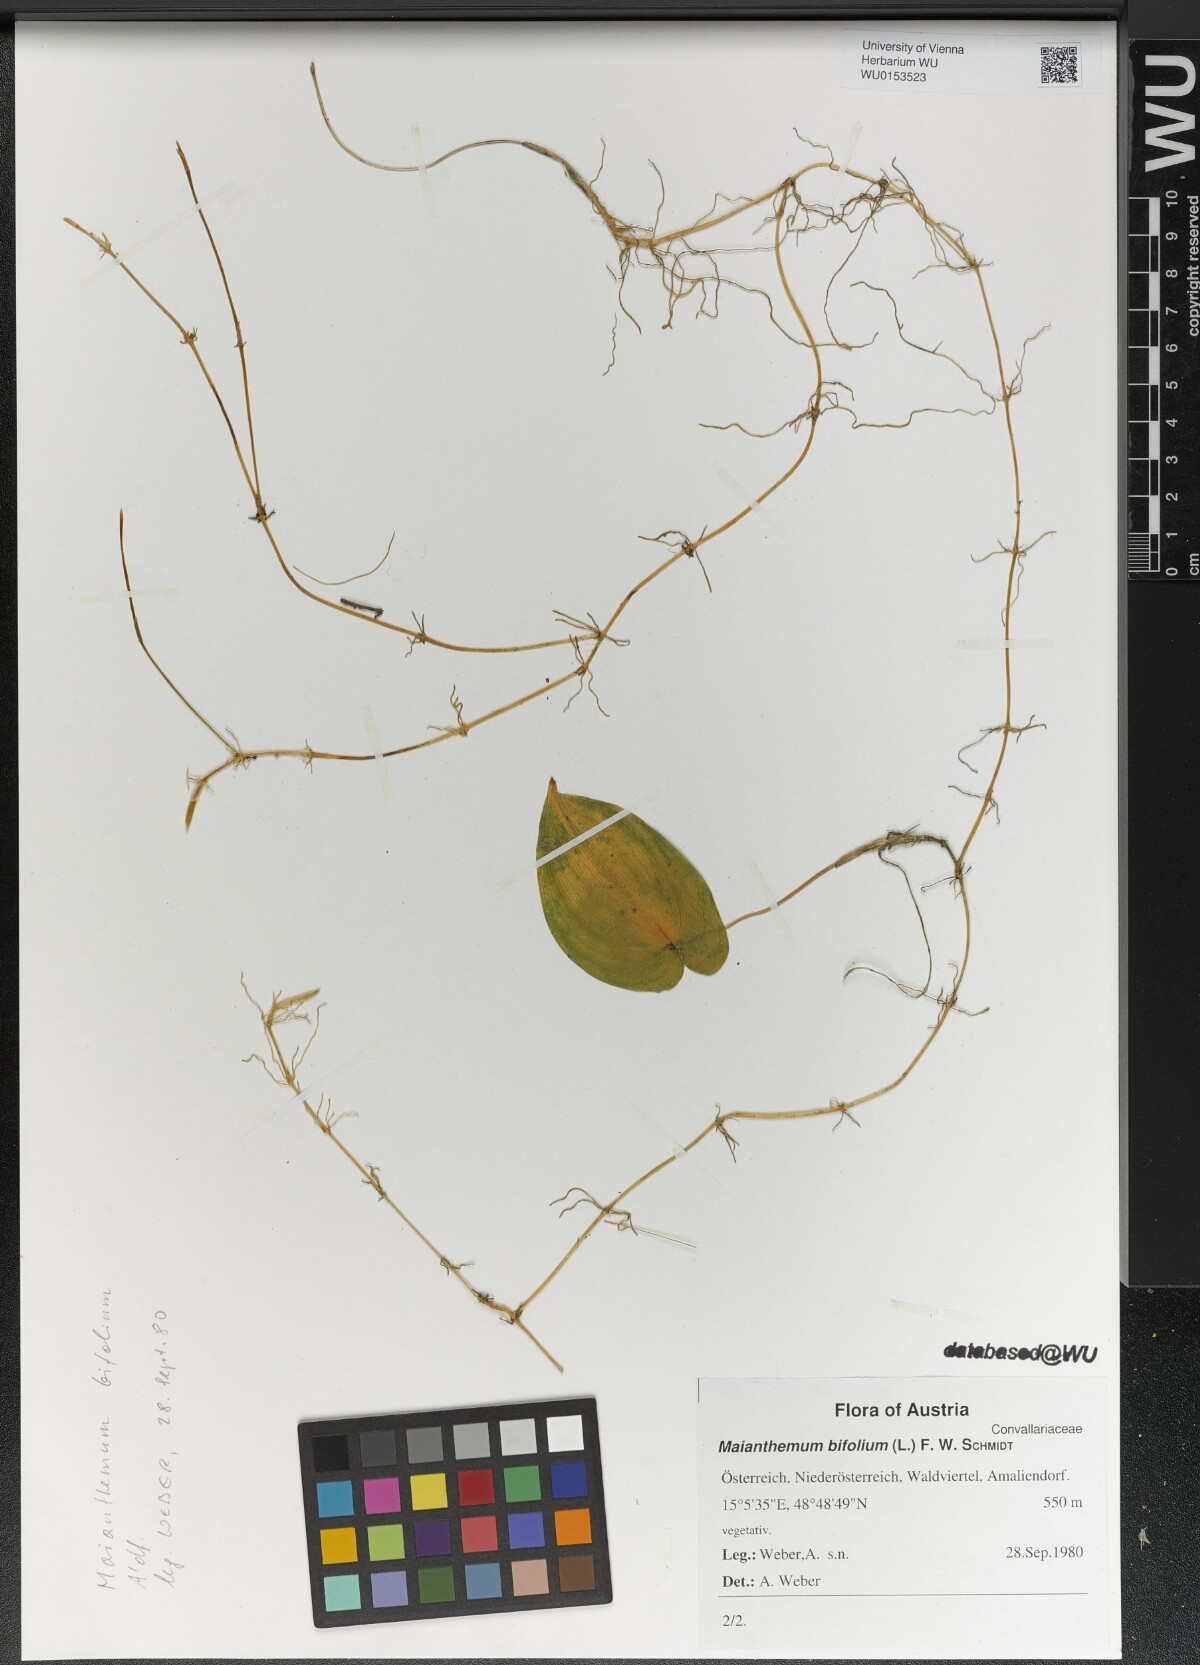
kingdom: Plantae
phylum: Tracheophyta
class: Liliopsida
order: Asparagales
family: Asparagaceae
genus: Maianthemum
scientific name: Maianthemum bifolium
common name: May lily
